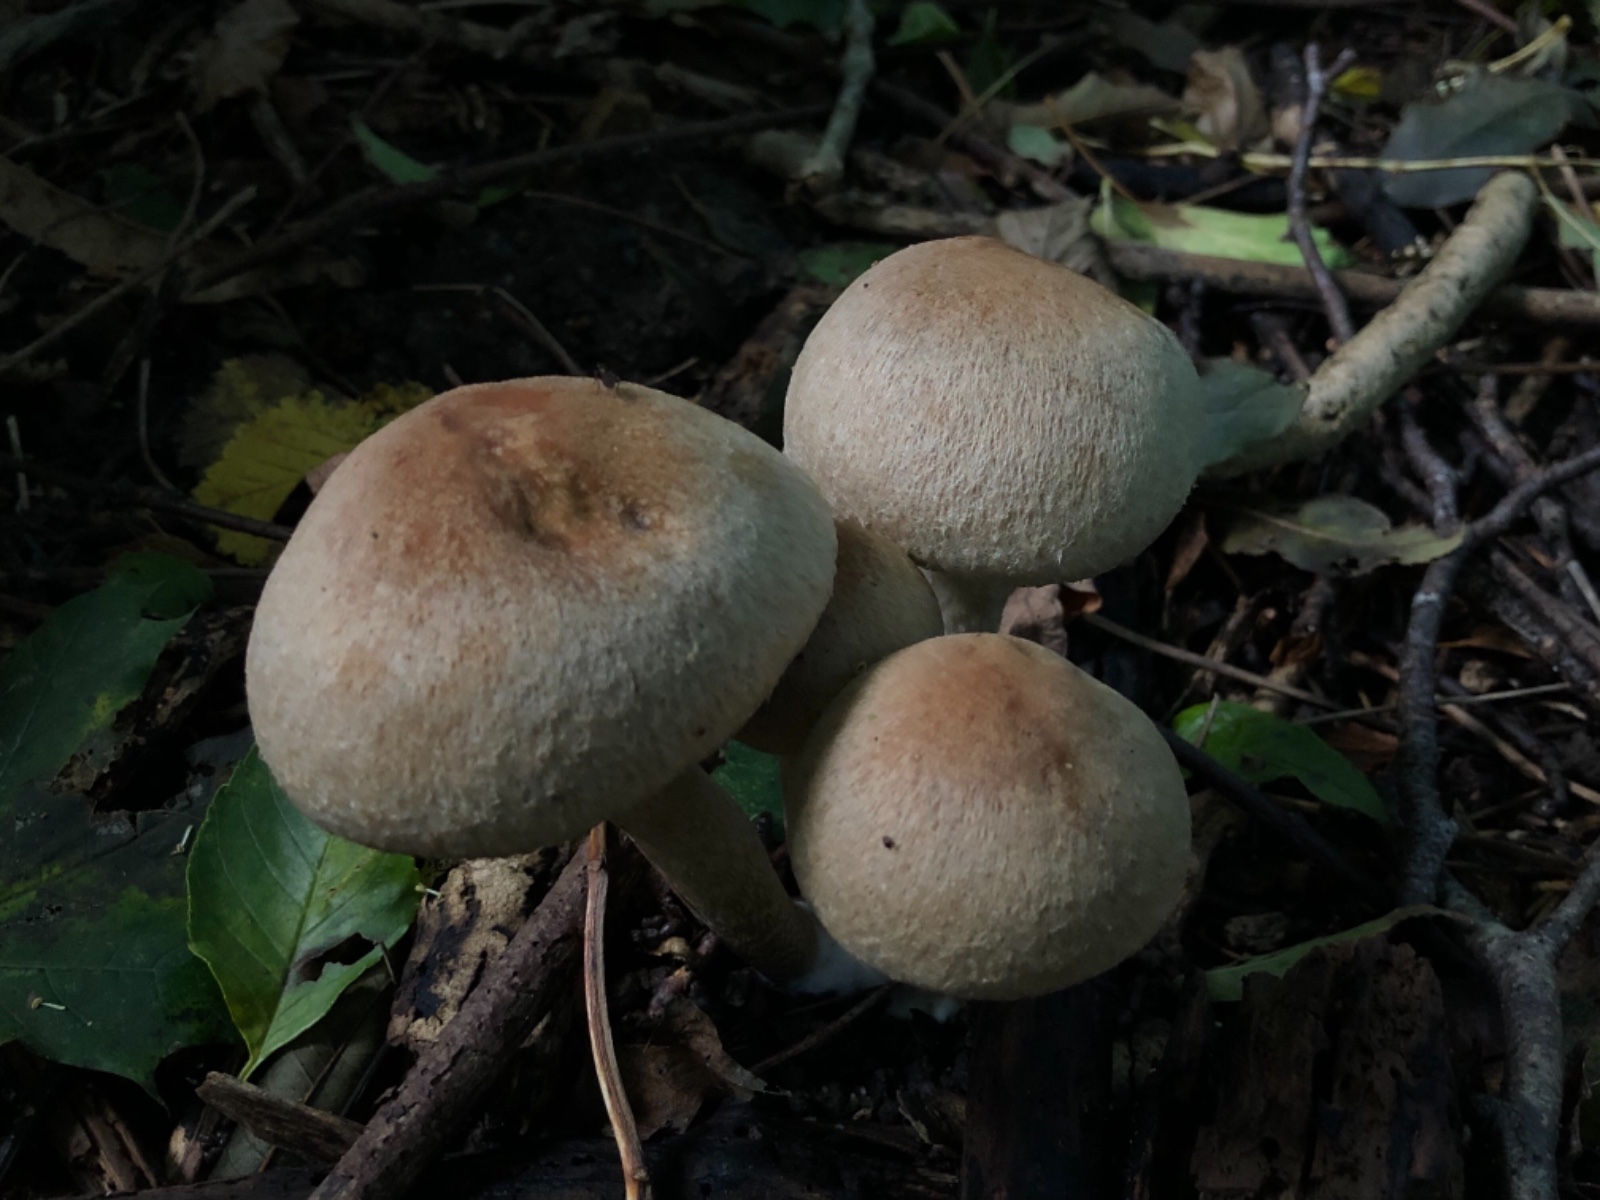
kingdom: Fungi
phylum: Basidiomycota
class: Agaricomycetes
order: Agaricales
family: Psathyrellaceae
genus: Lacrymaria
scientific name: Lacrymaria lacrymabunda
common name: grædende mørkhat
